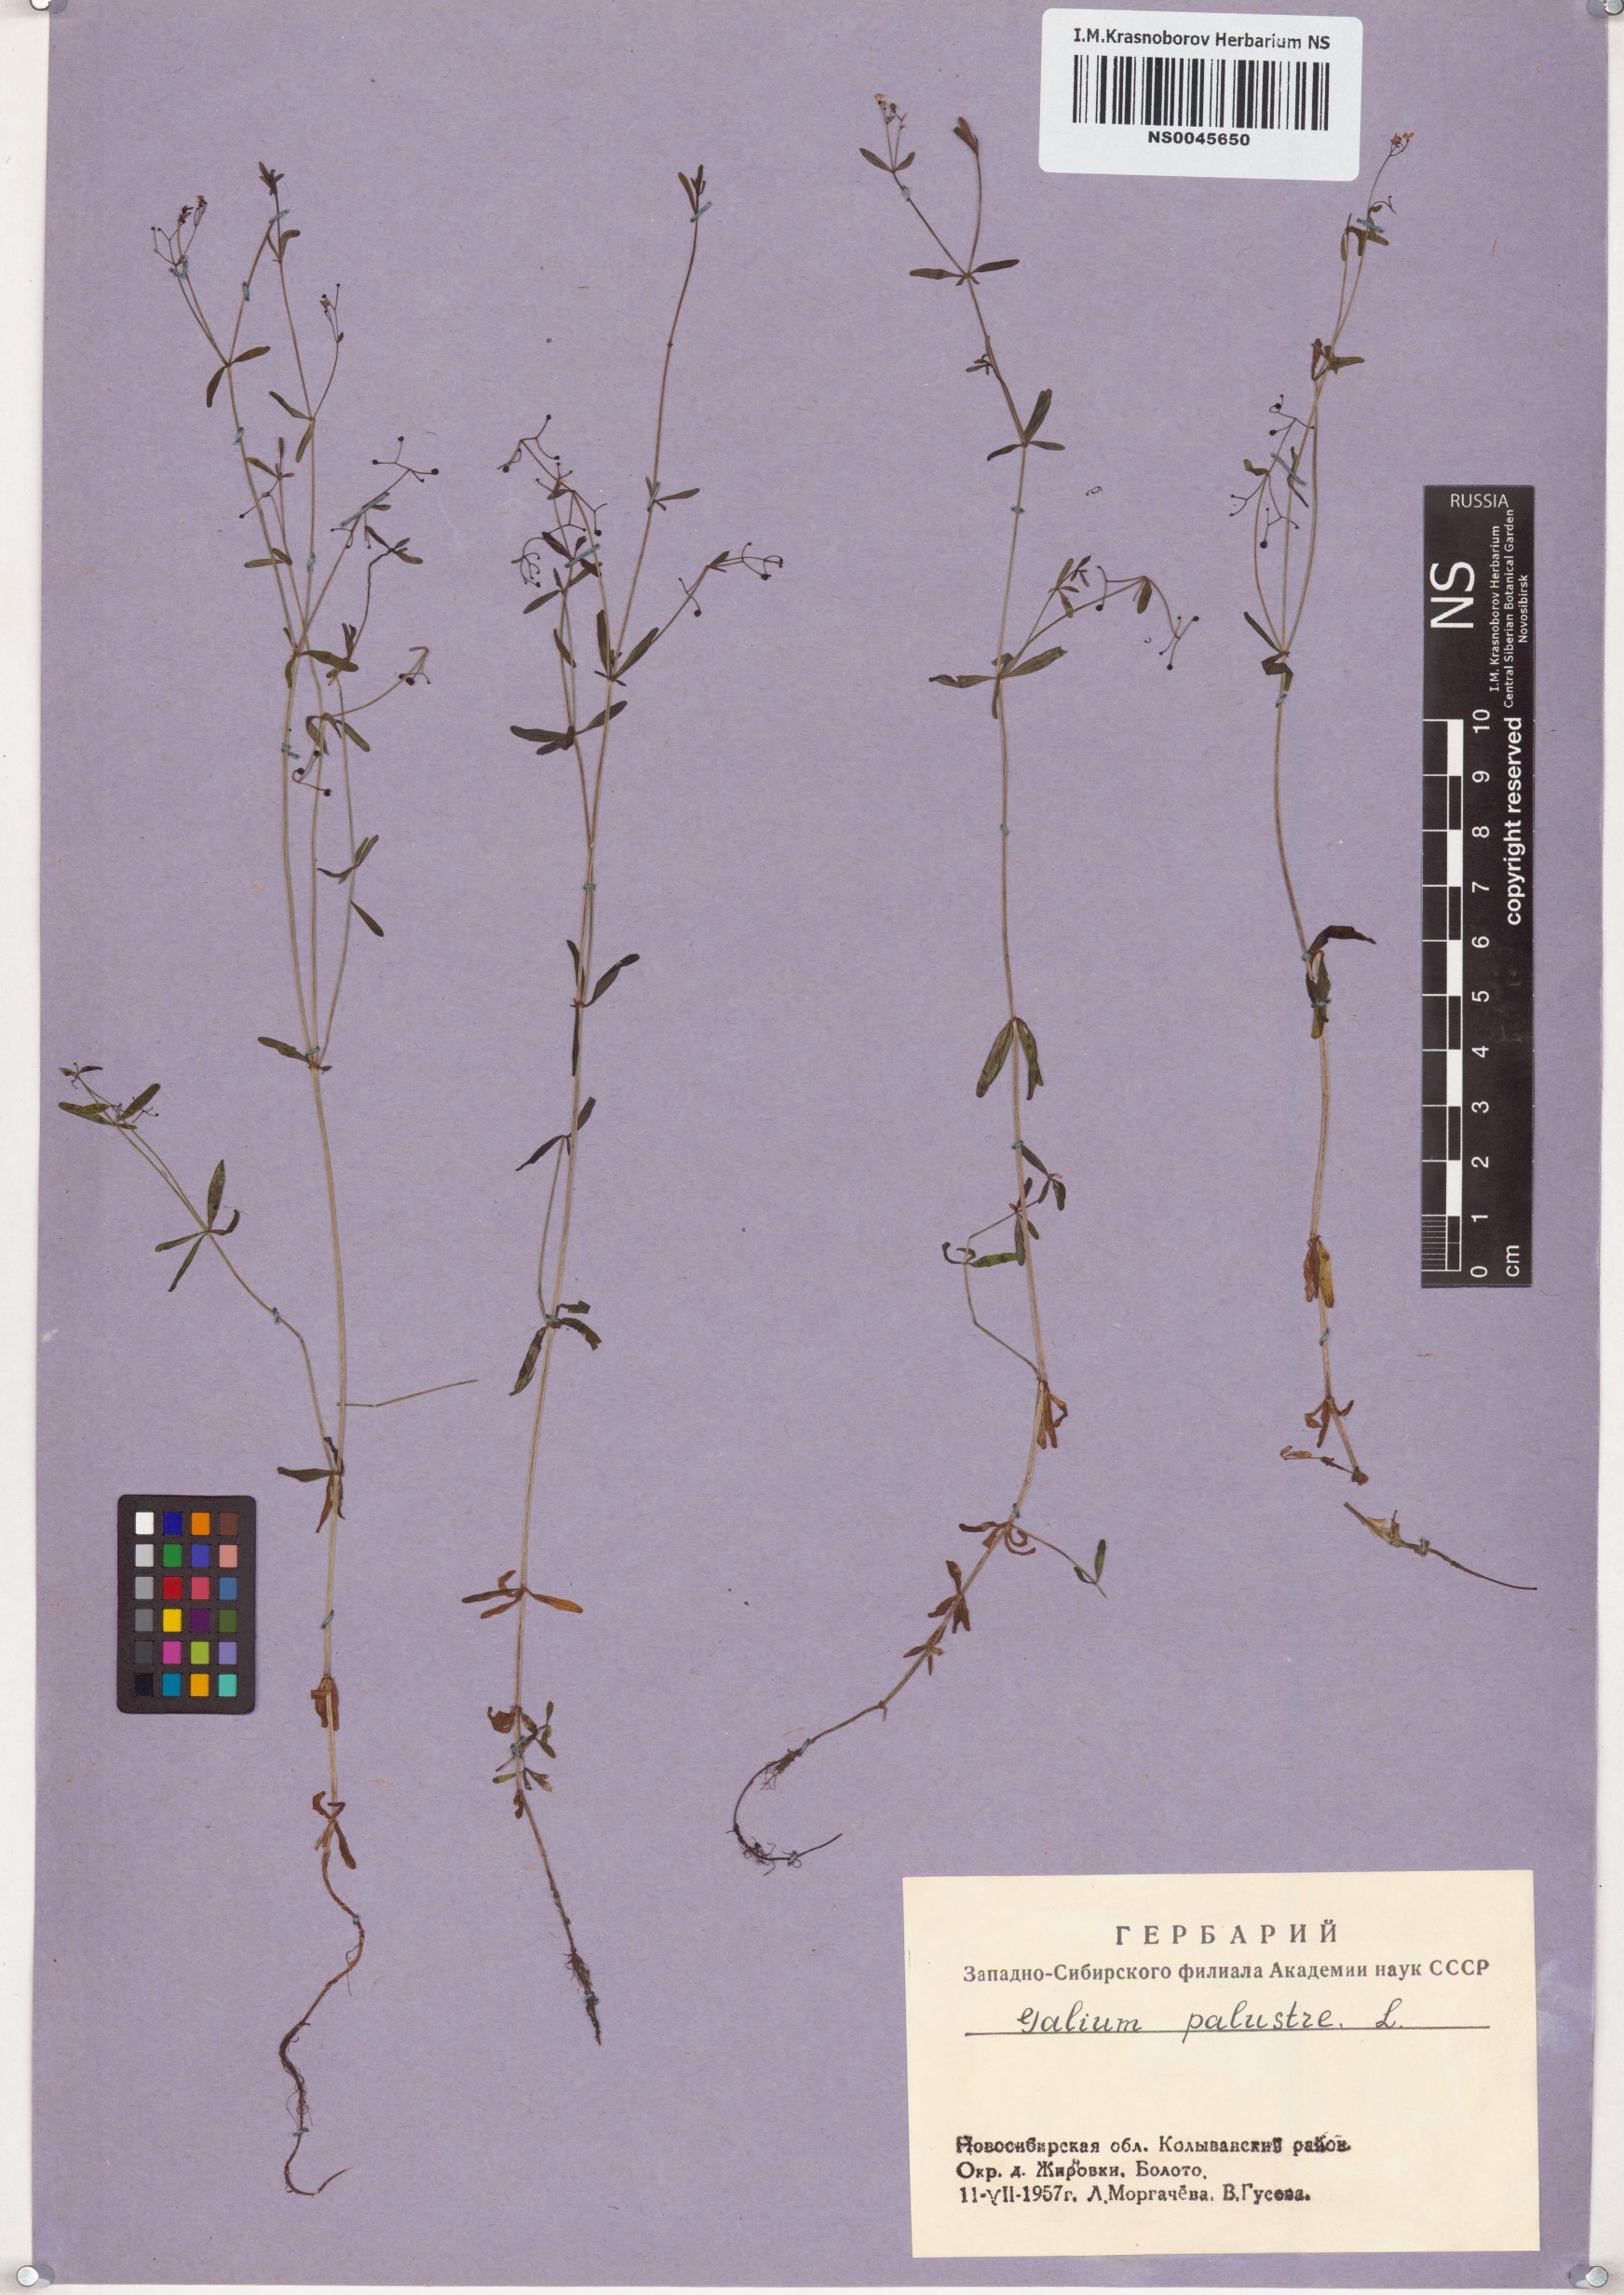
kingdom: Plantae
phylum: Tracheophyta
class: Magnoliopsida
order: Gentianales
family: Rubiaceae
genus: Galium
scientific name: Galium palustre
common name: Common marsh-bedstraw
